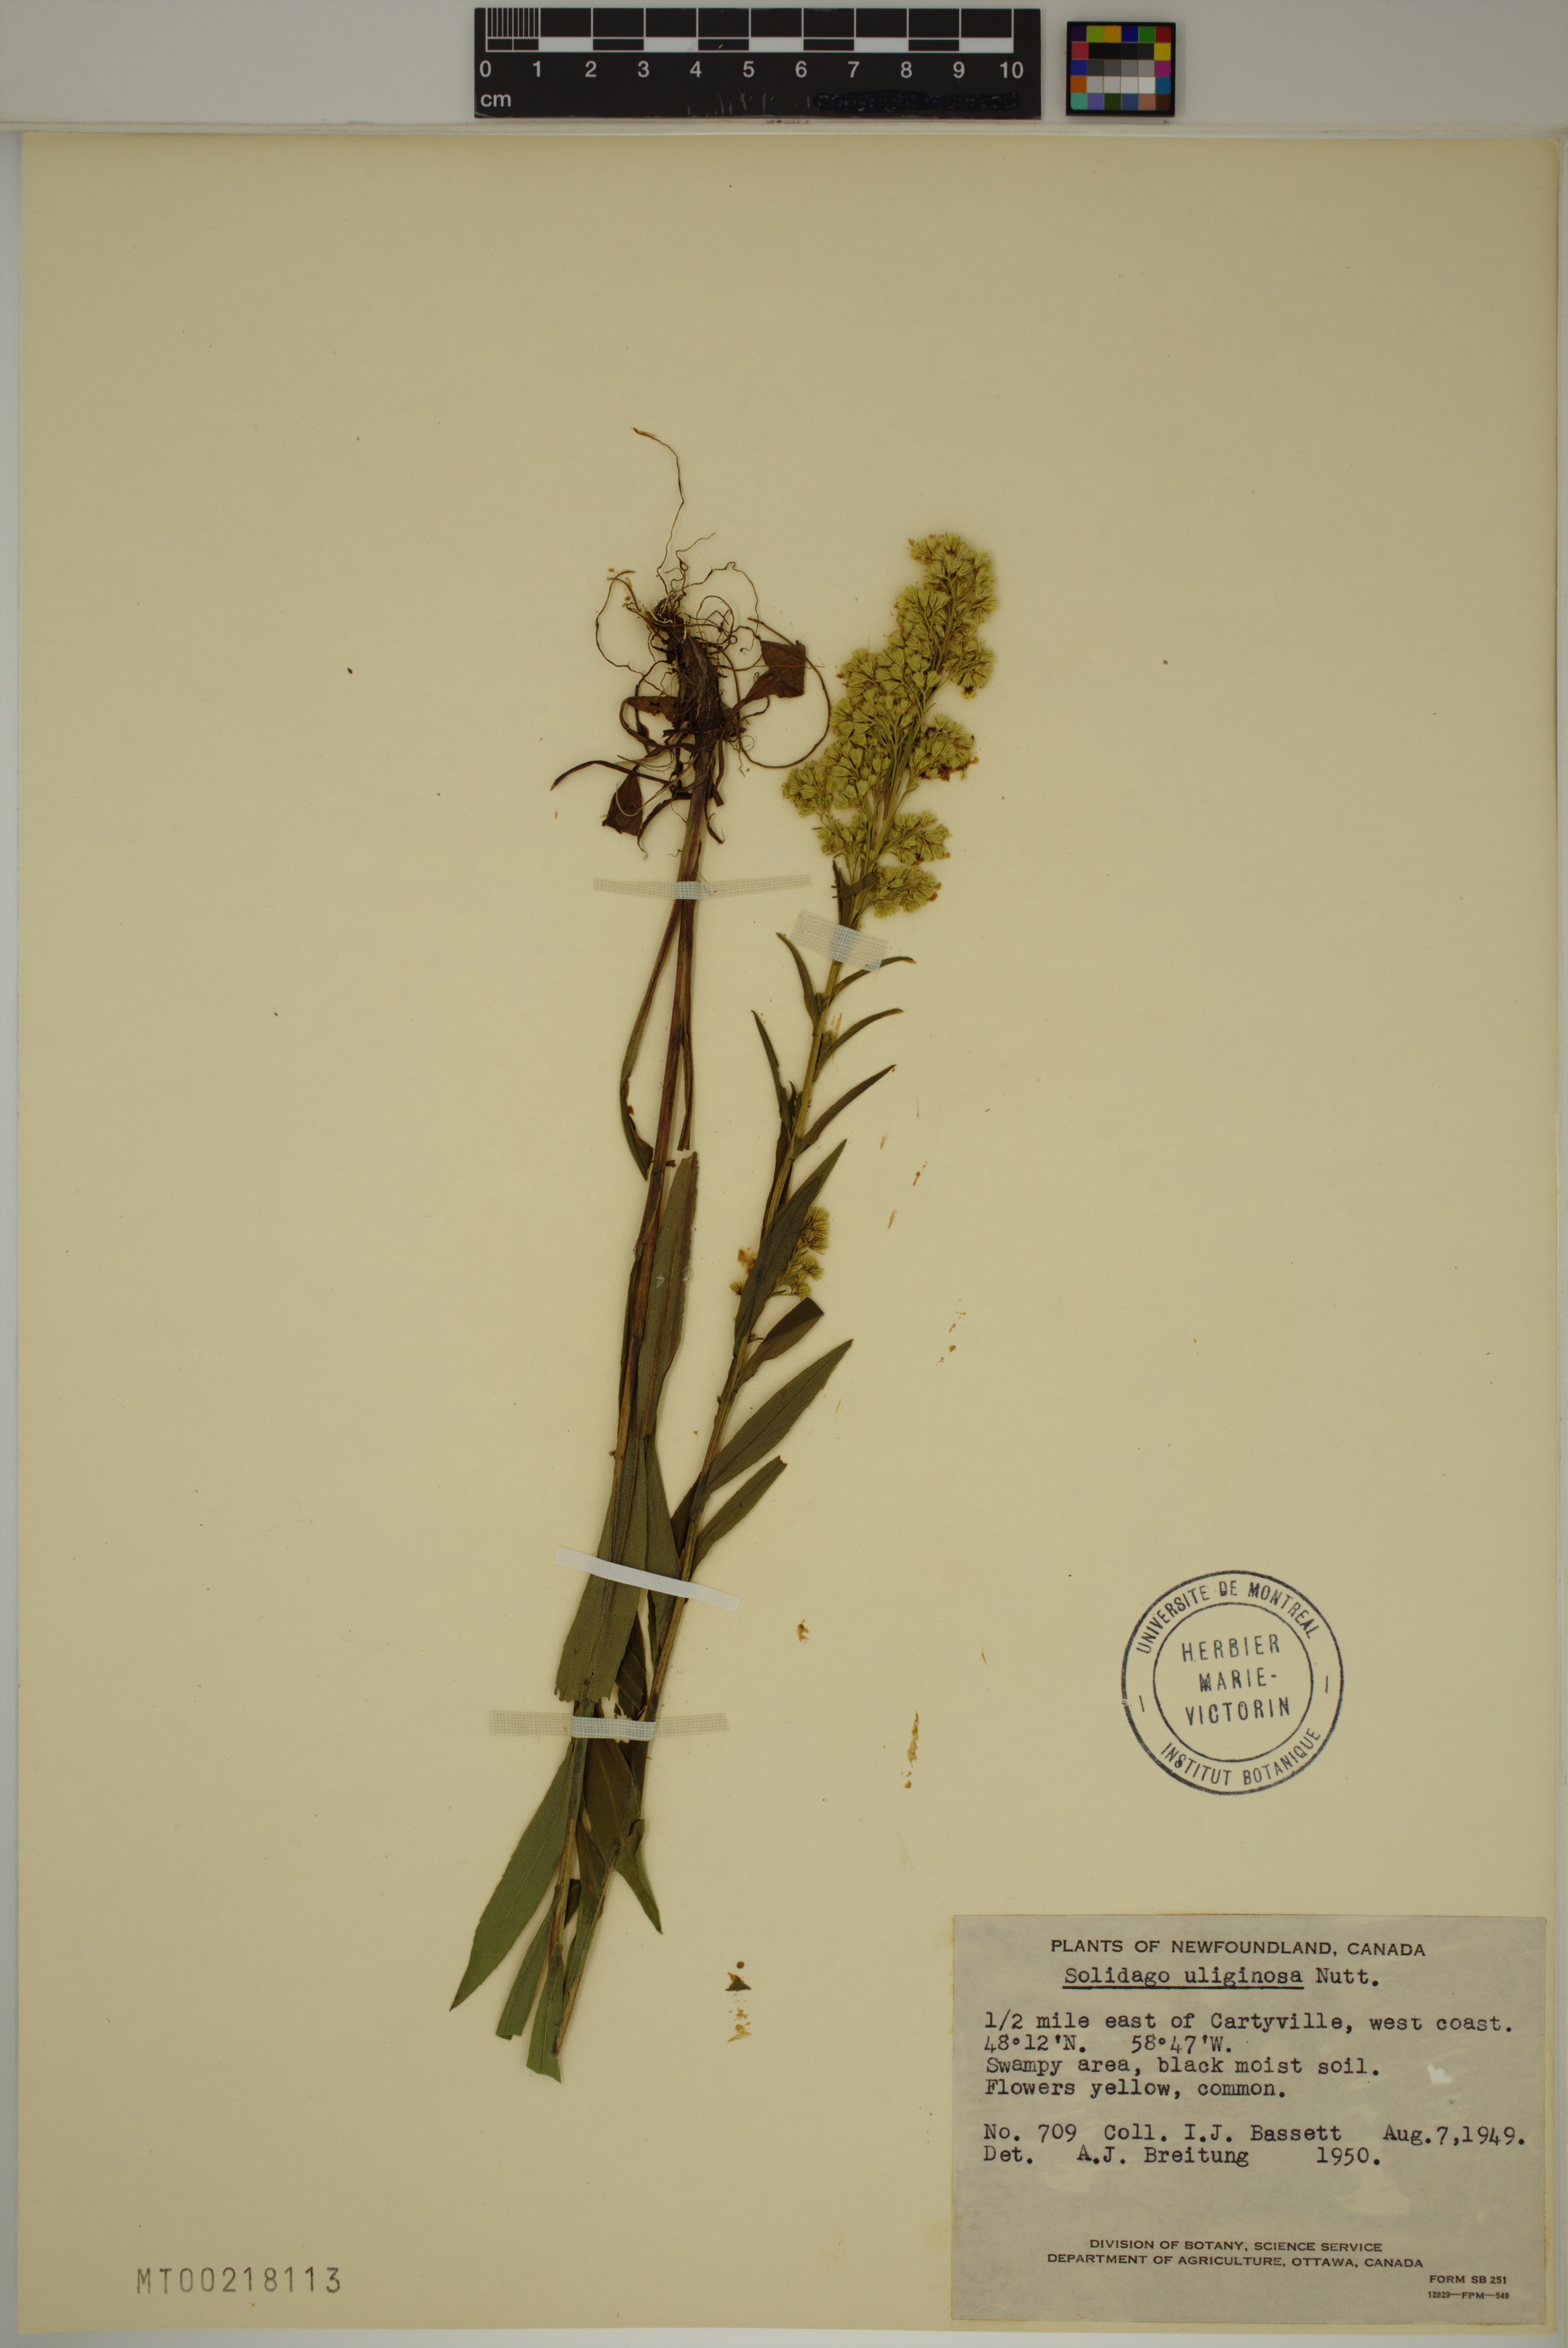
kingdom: Plantae
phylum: Tracheophyta
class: Magnoliopsida
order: Asterales
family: Asteraceae
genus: Solidago
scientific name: Solidago uliginosa
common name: Bog goldenrod
